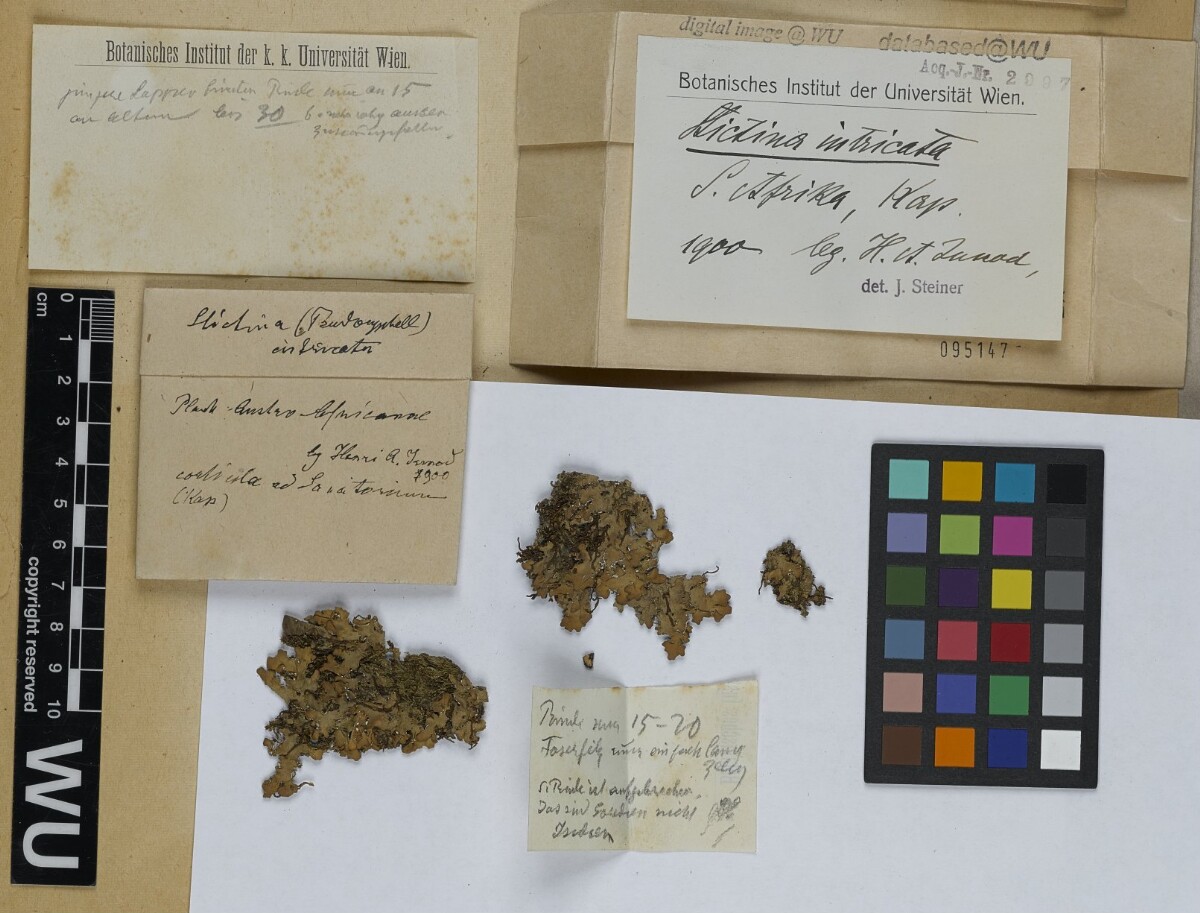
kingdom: Fungi
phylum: Ascomycota
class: Lecanoromycetes
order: Peltigerales
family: Lobariaceae
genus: Pseudocyphellaria
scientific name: Pseudocyphellaria intricata
